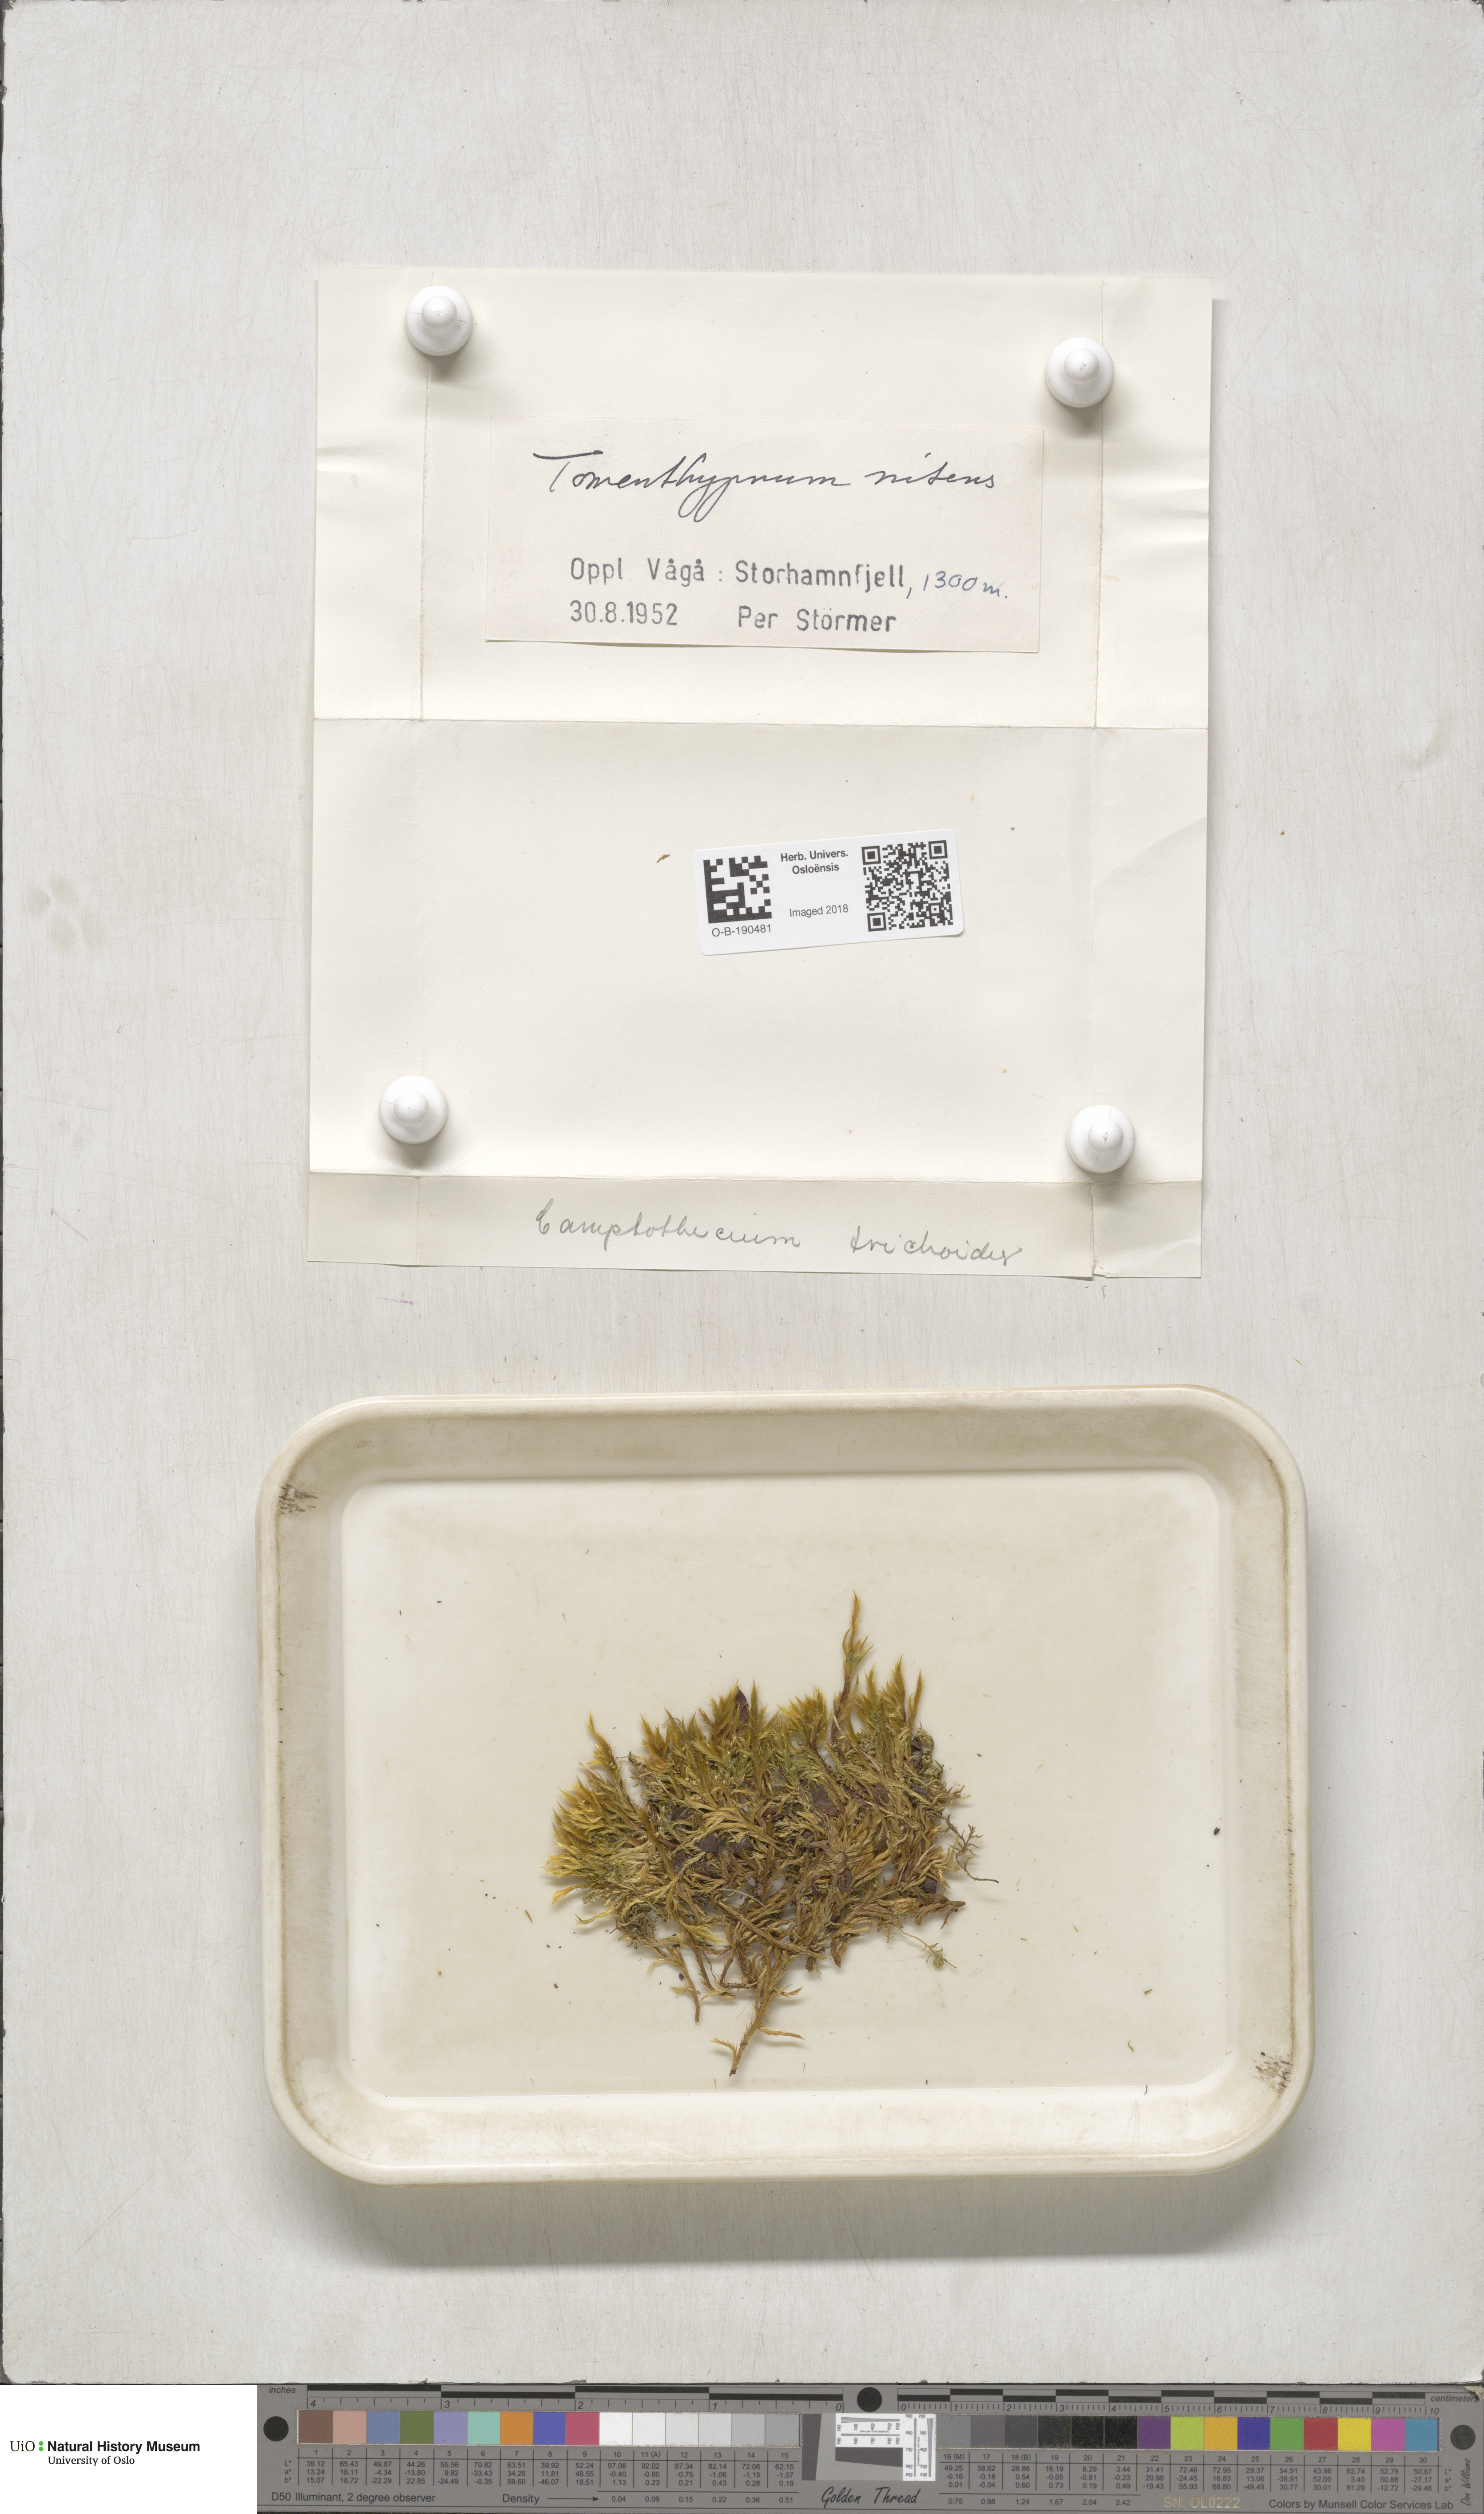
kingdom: Plantae
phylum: Bryophyta
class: Bryopsida
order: Hypnales
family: Amblystegiaceae
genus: Tomentypnum
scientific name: Tomentypnum nitens
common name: Golden fuzzy fen moss
